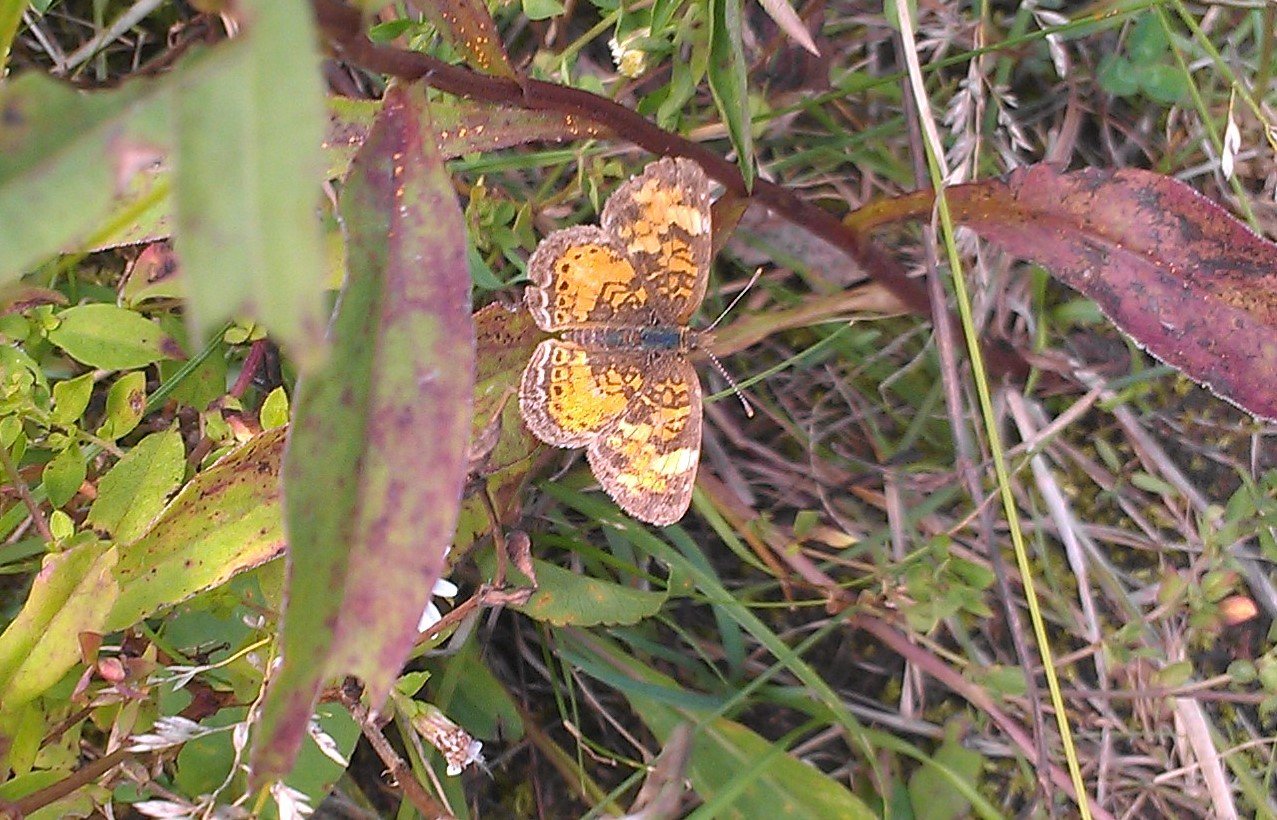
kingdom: Animalia
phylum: Arthropoda
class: Insecta
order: Lepidoptera
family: Nymphalidae
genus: Phyciodes
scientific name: Phyciodes tharos
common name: Northern Crescent
